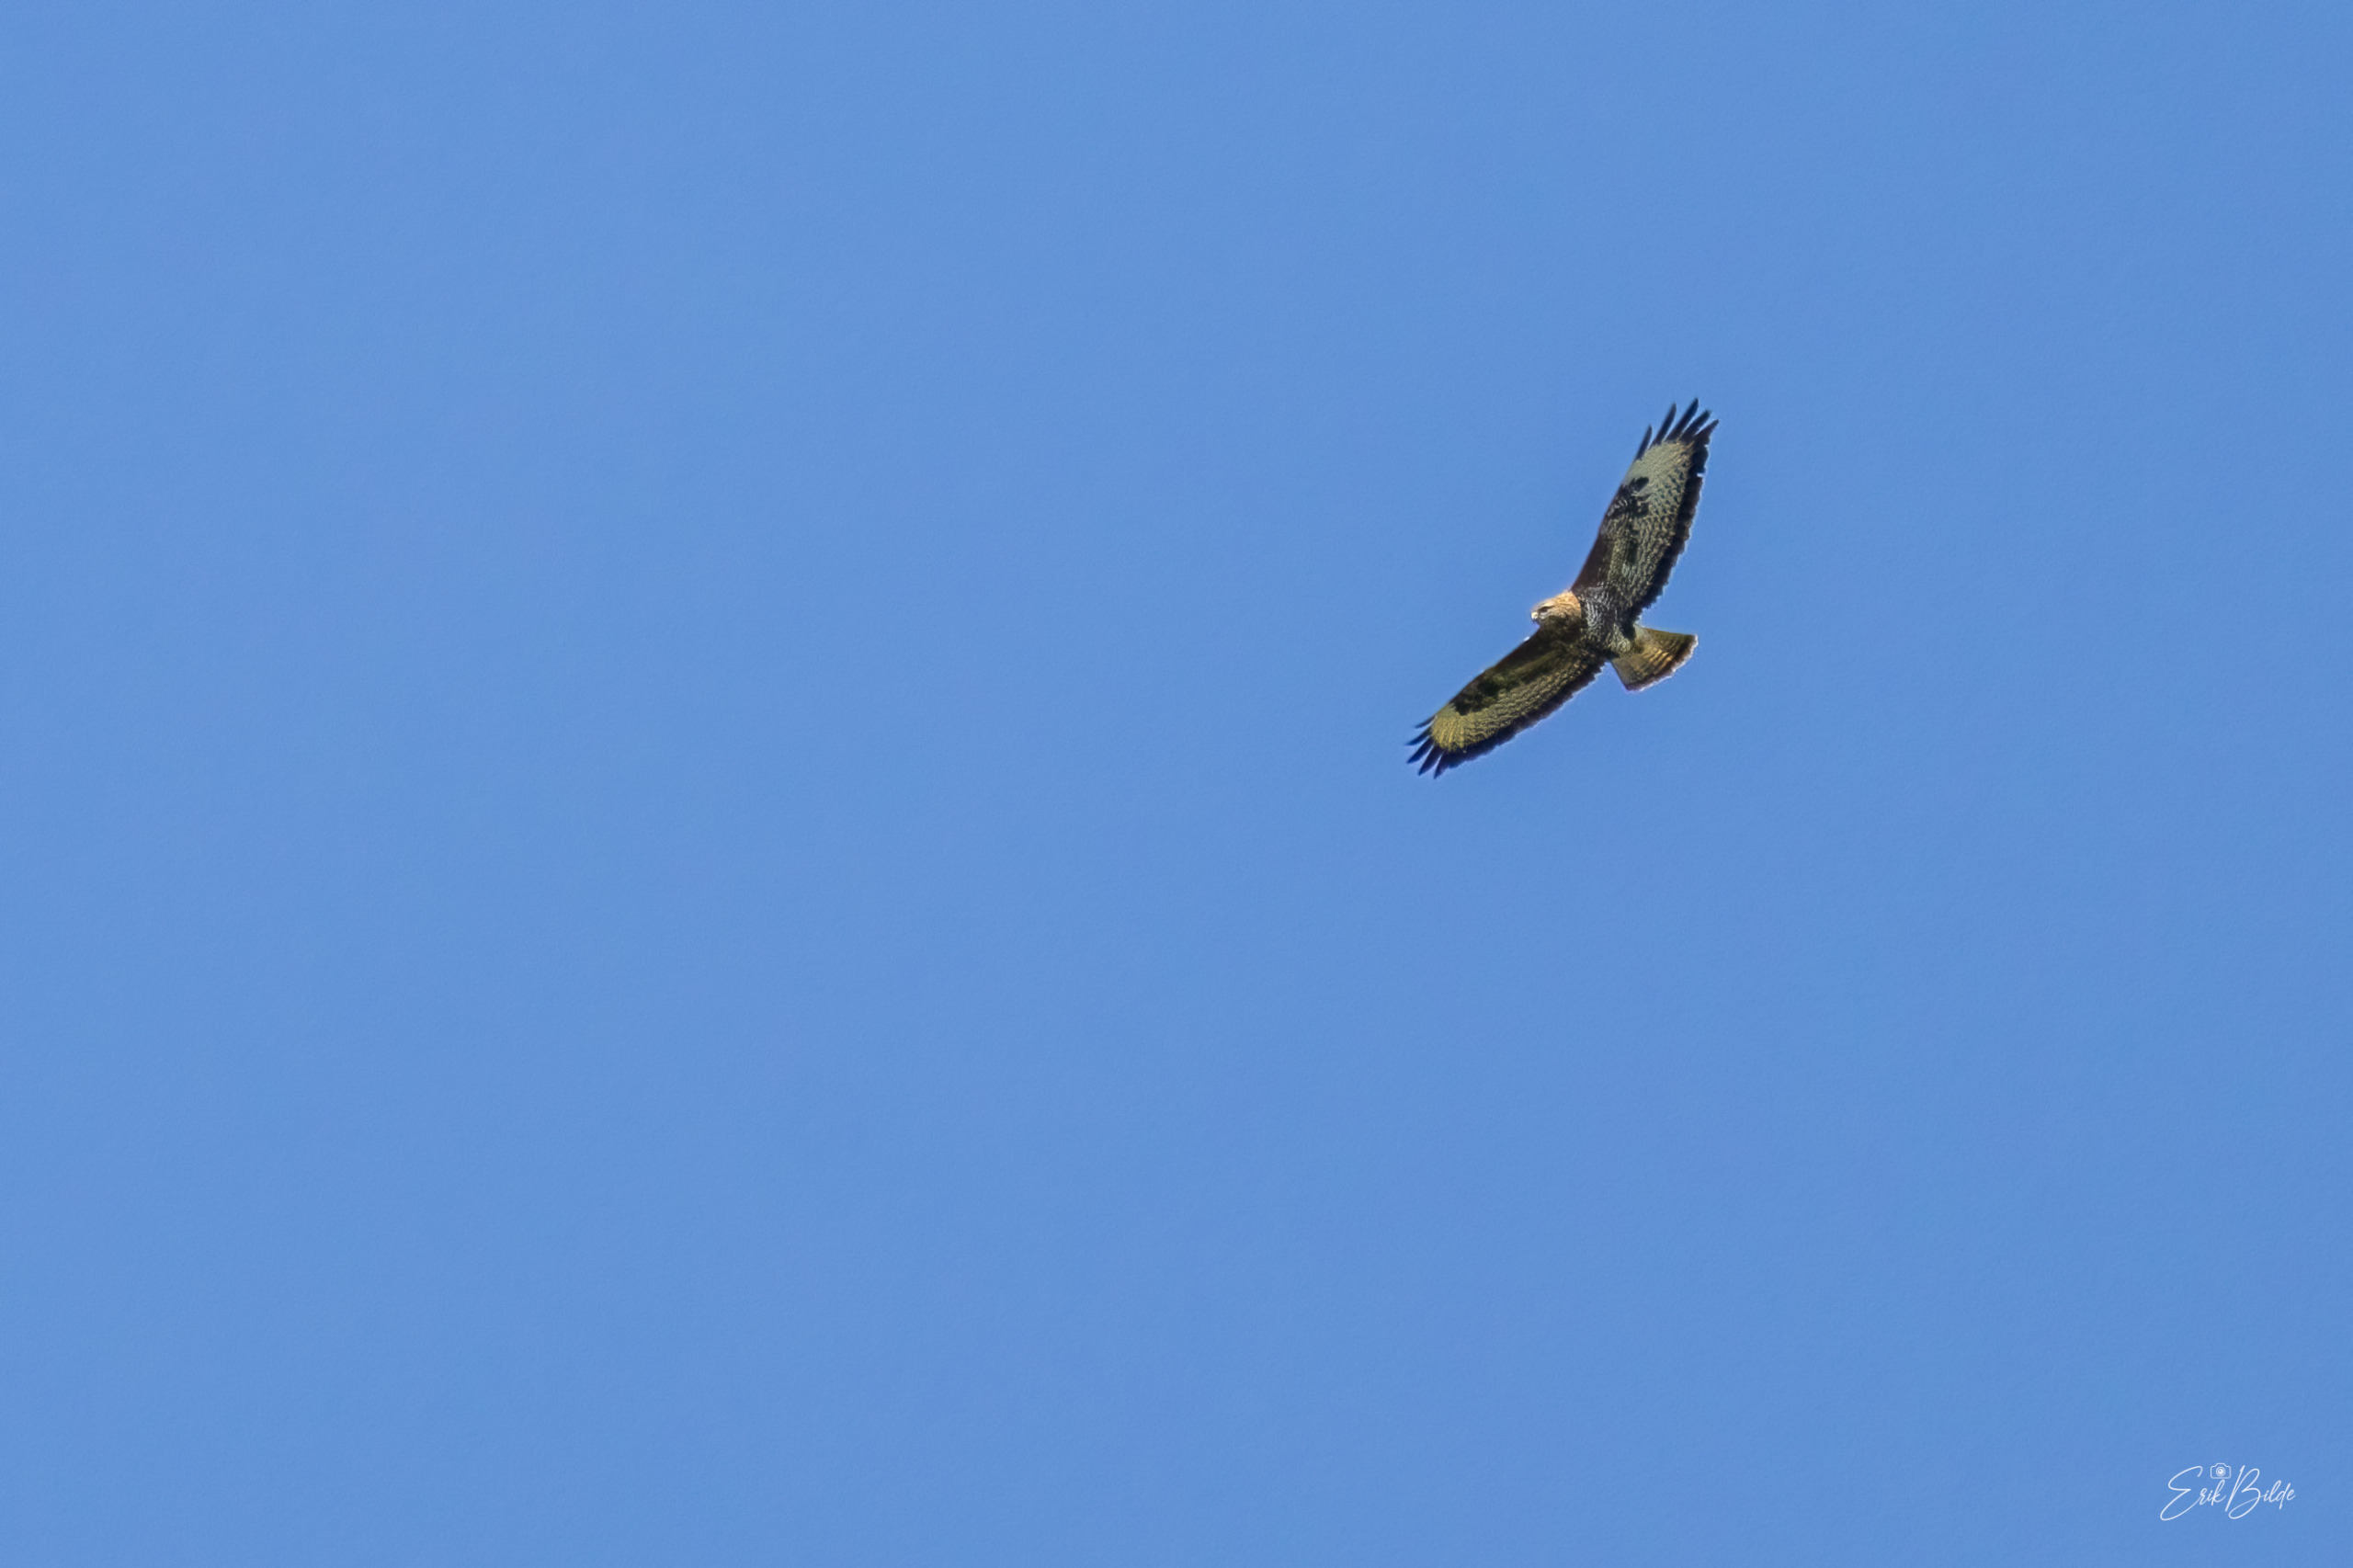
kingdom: Animalia
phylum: Chordata
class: Aves
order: Accipitriformes
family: Accipitridae
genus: Buteo
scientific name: Buteo buteo
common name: Musvåge
